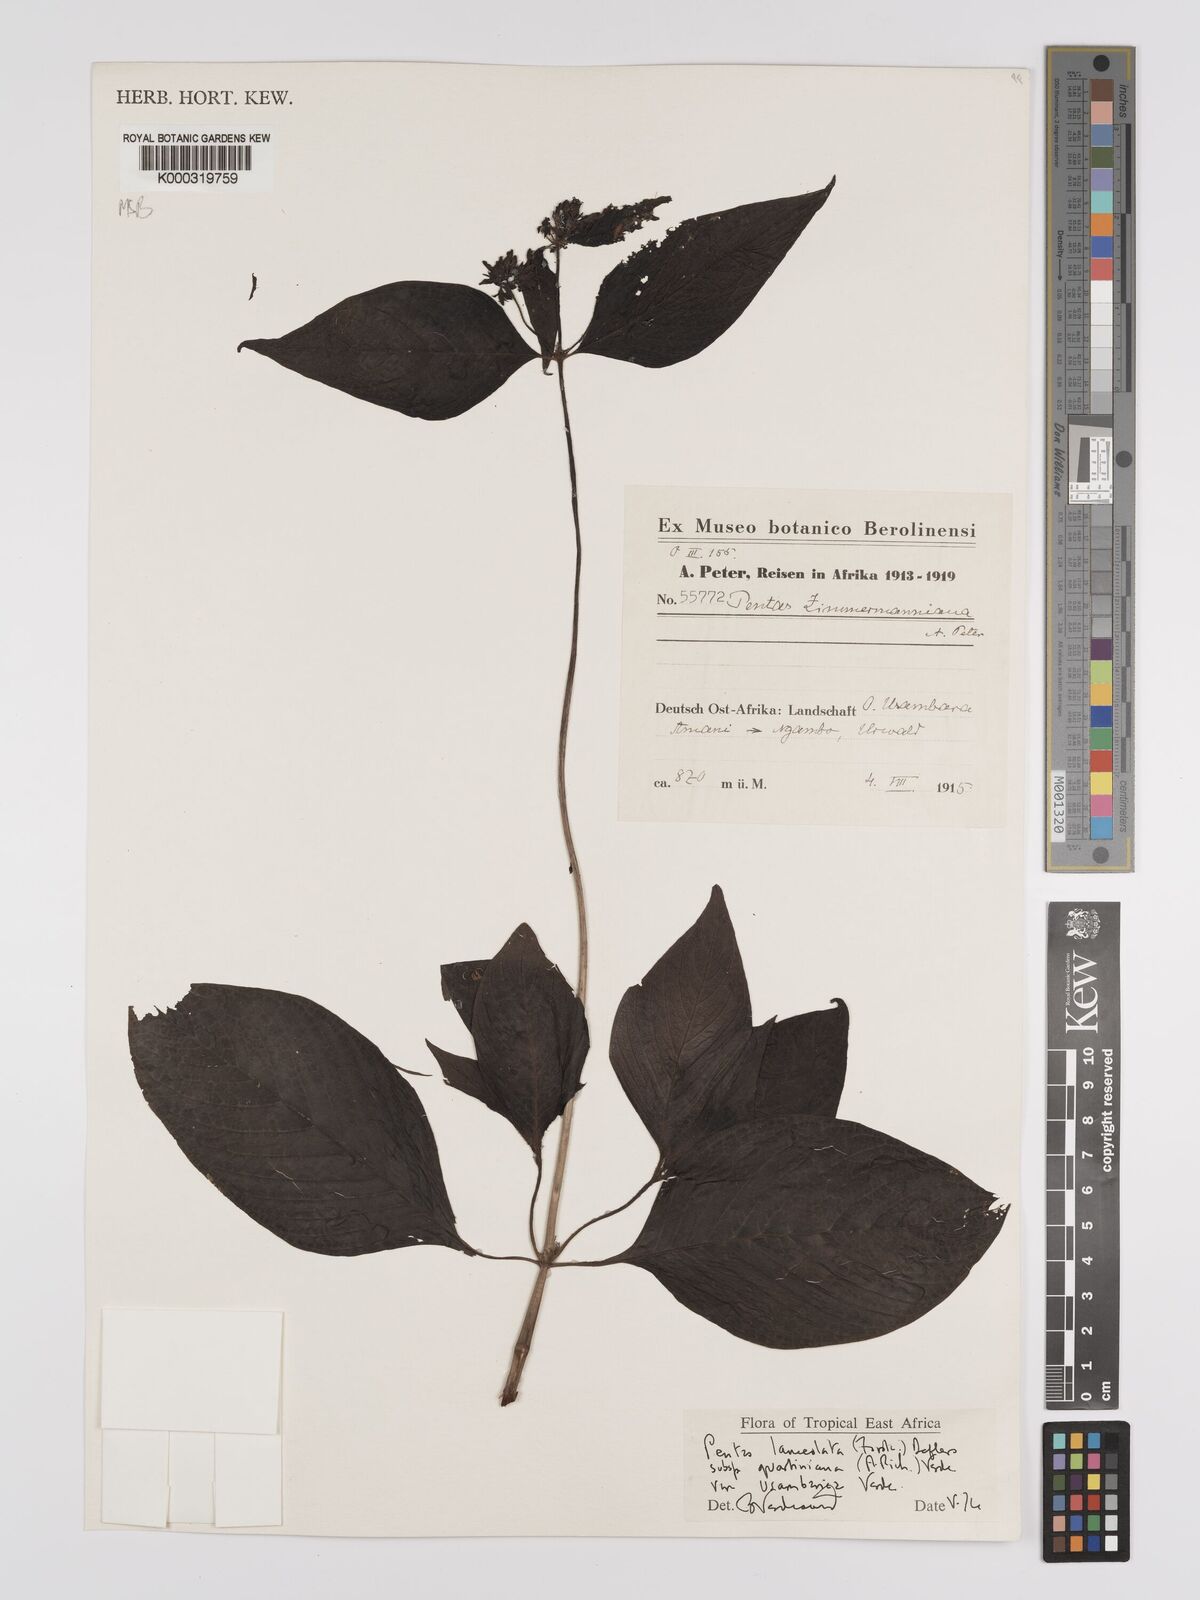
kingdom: Plantae
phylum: Tracheophyta
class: Magnoliopsida
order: Gentianales
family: Rubiaceae
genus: Pentas
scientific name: Pentas lanceolata
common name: Egyptian starcluster
